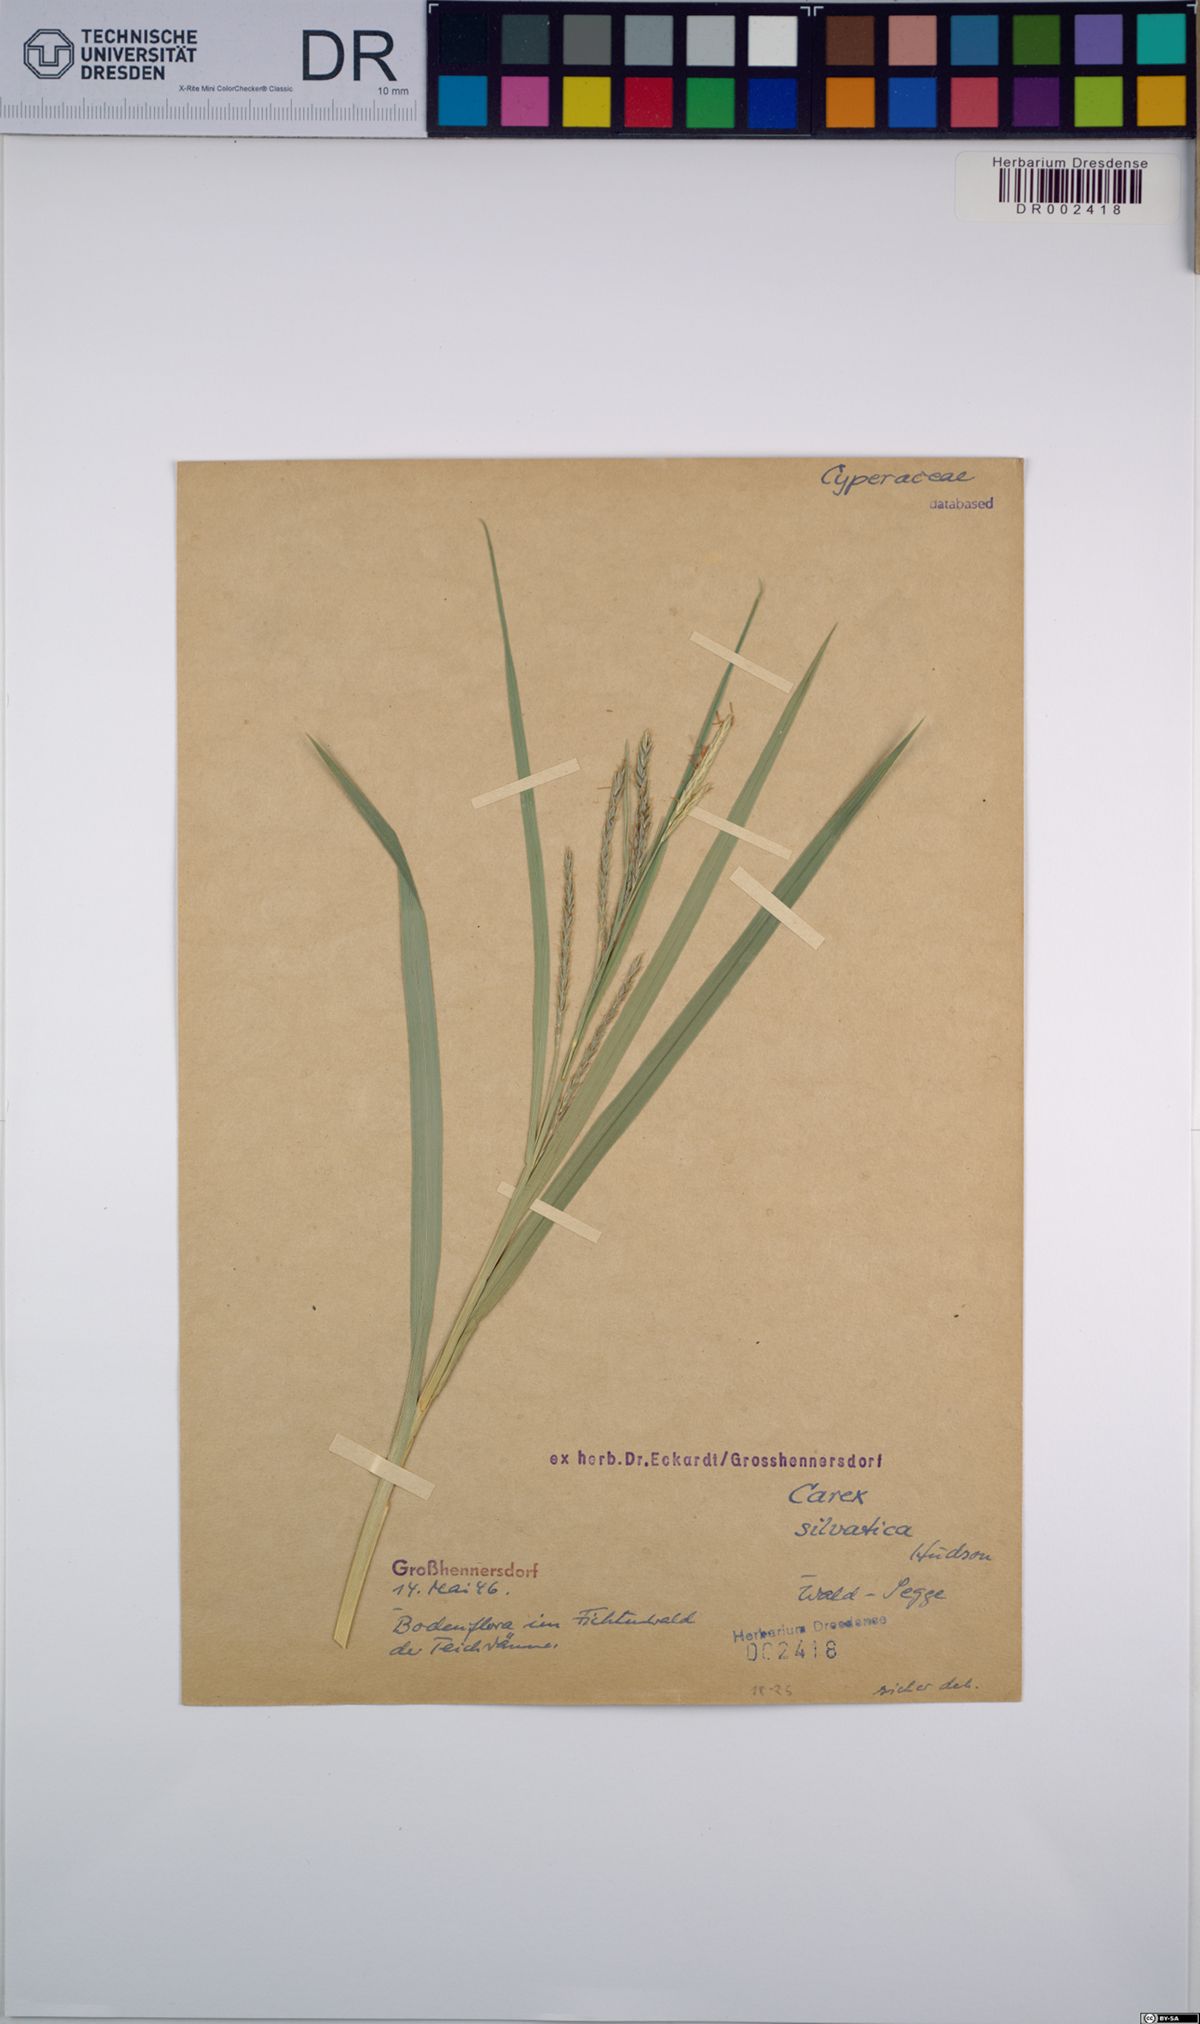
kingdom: Plantae
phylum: Tracheophyta
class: Liliopsida
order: Poales
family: Cyperaceae
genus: Carex
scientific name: Carex sylvatica
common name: Wood-sedge
